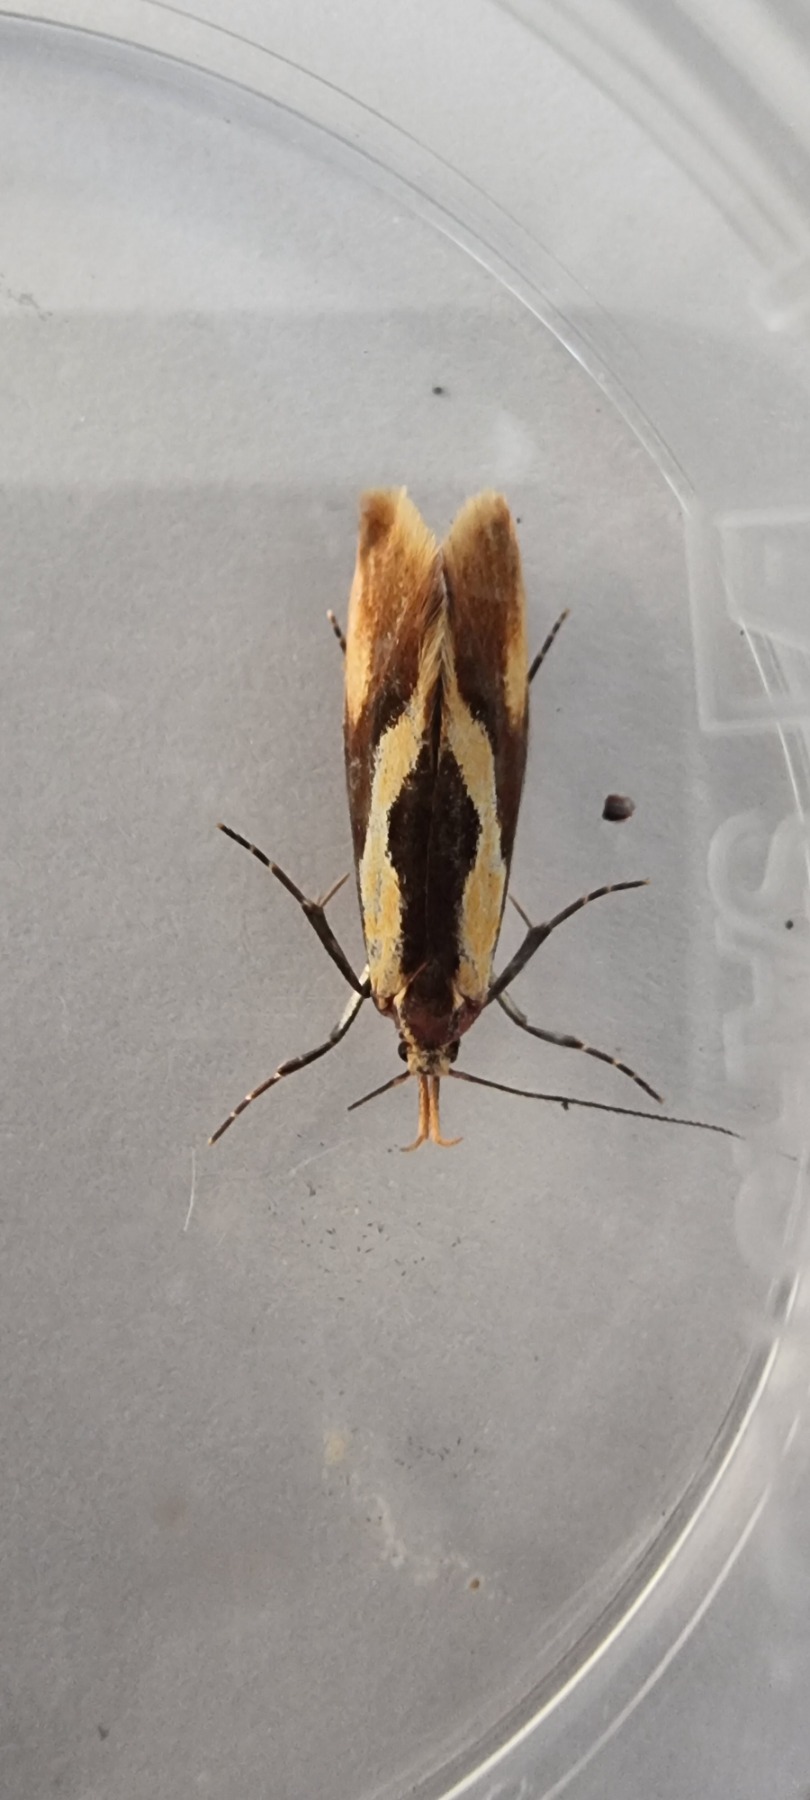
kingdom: Animalia
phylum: Arthropoda
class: Insecta
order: Lepidoptera
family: Oecophoridae
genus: Harpella
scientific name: Harpella forficella
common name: Kæmpeprydvinge
